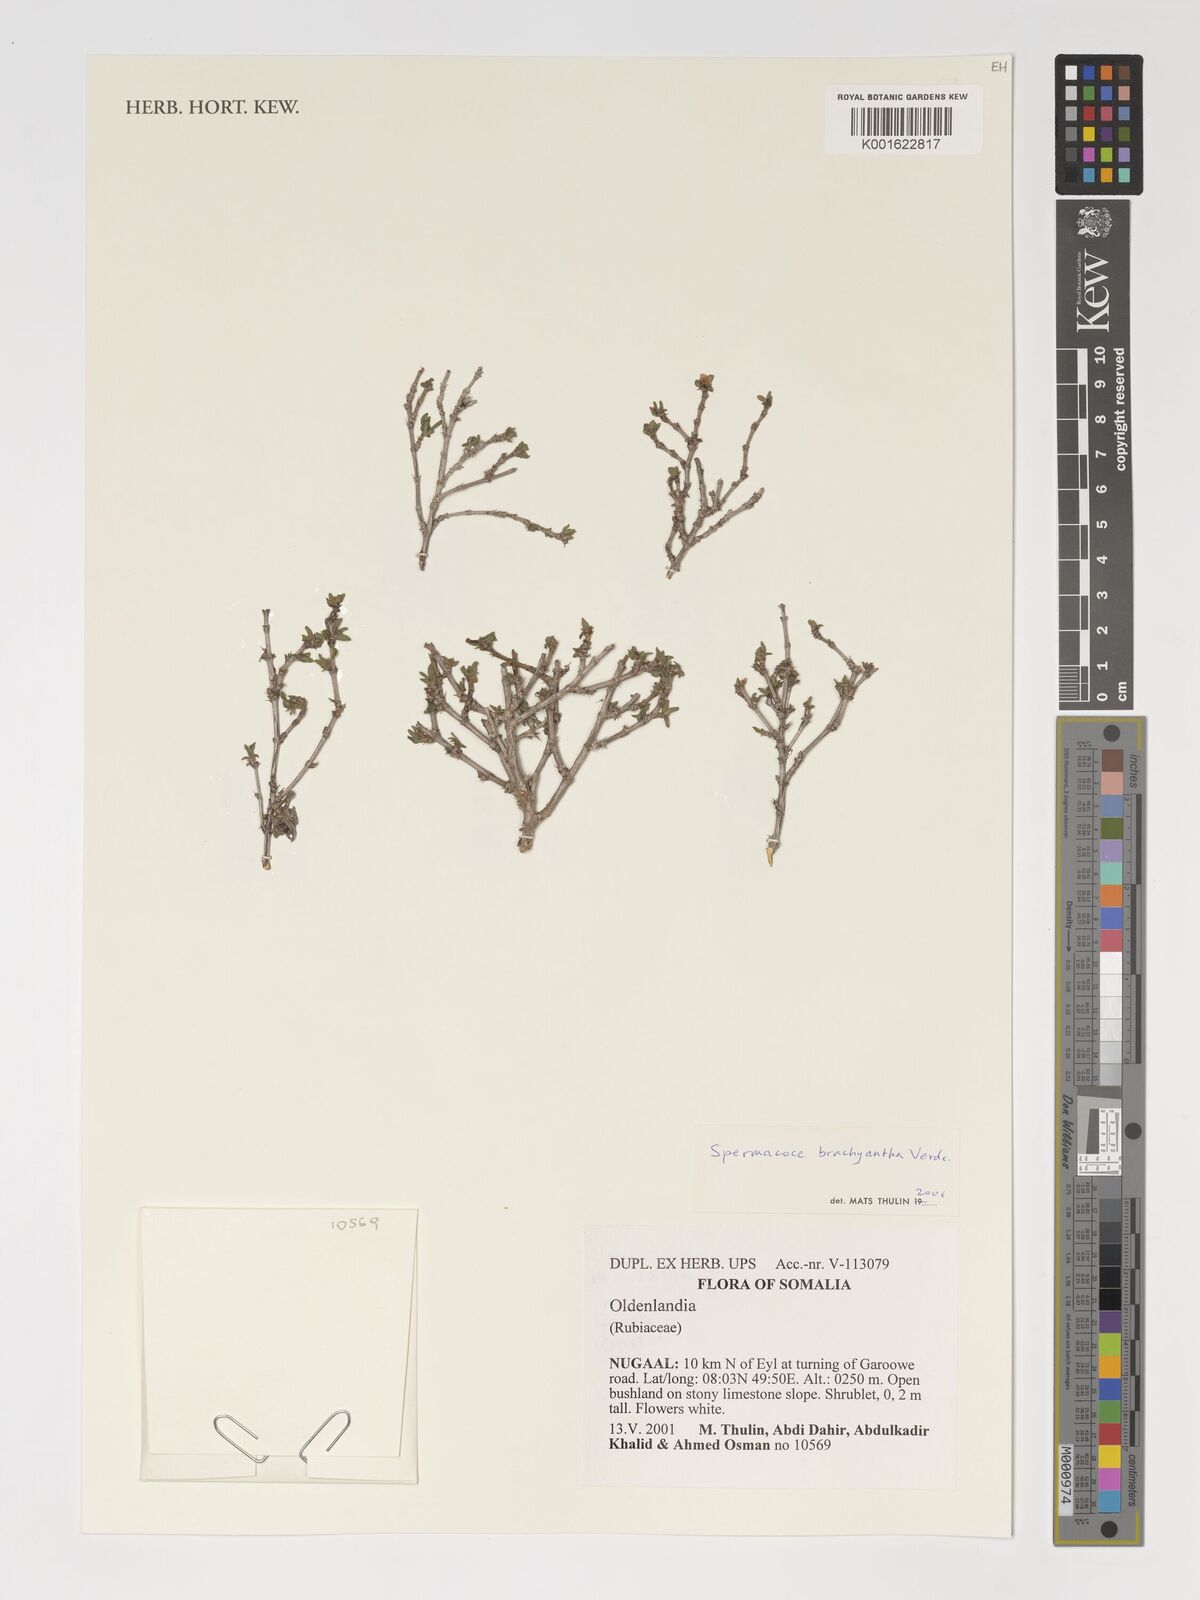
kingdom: Plantae
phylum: Tracheophyta
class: Magnoliopsida
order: Gentianales
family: Rubiaceae
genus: Oldenlandia
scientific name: Oldenlandia
